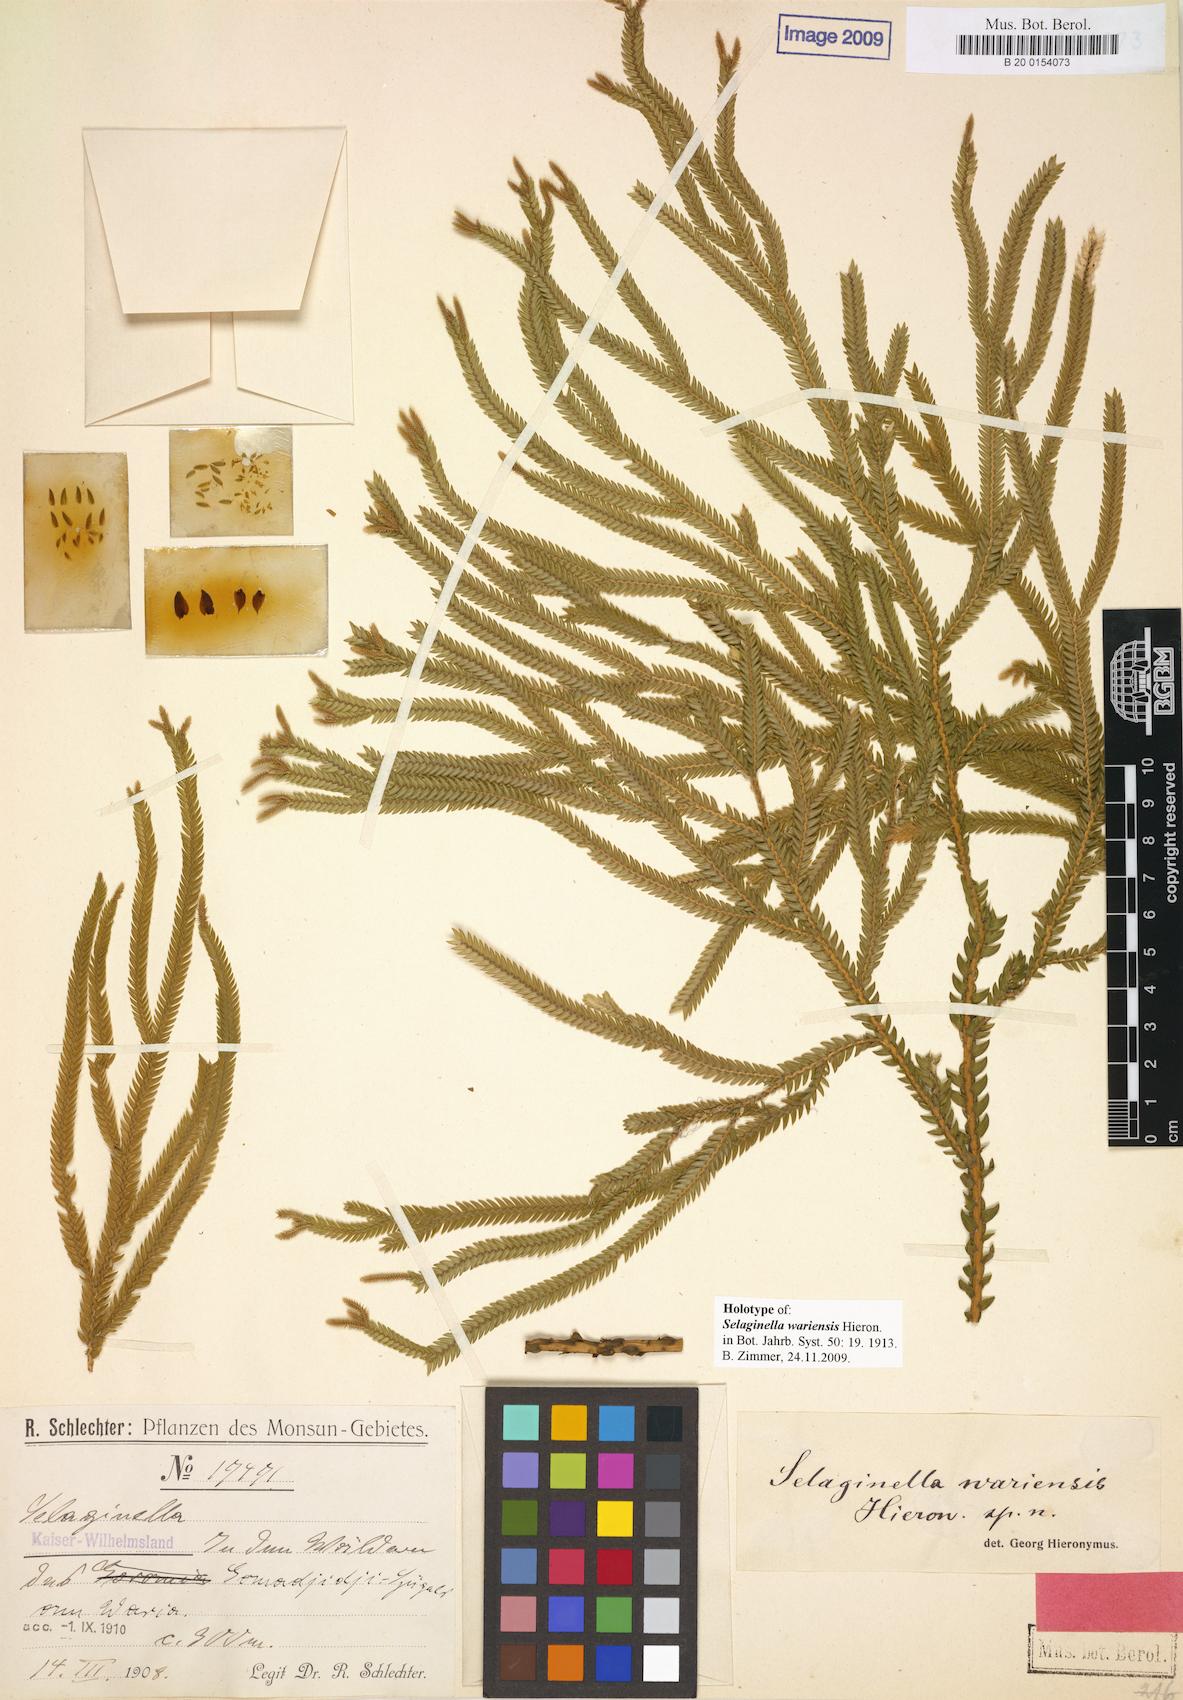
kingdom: Plantae
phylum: Tracheophyta
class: Lycopodiopsida
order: Selaginellales
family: Selaginellaceae
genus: Selaginella
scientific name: Selaginella wariensis
